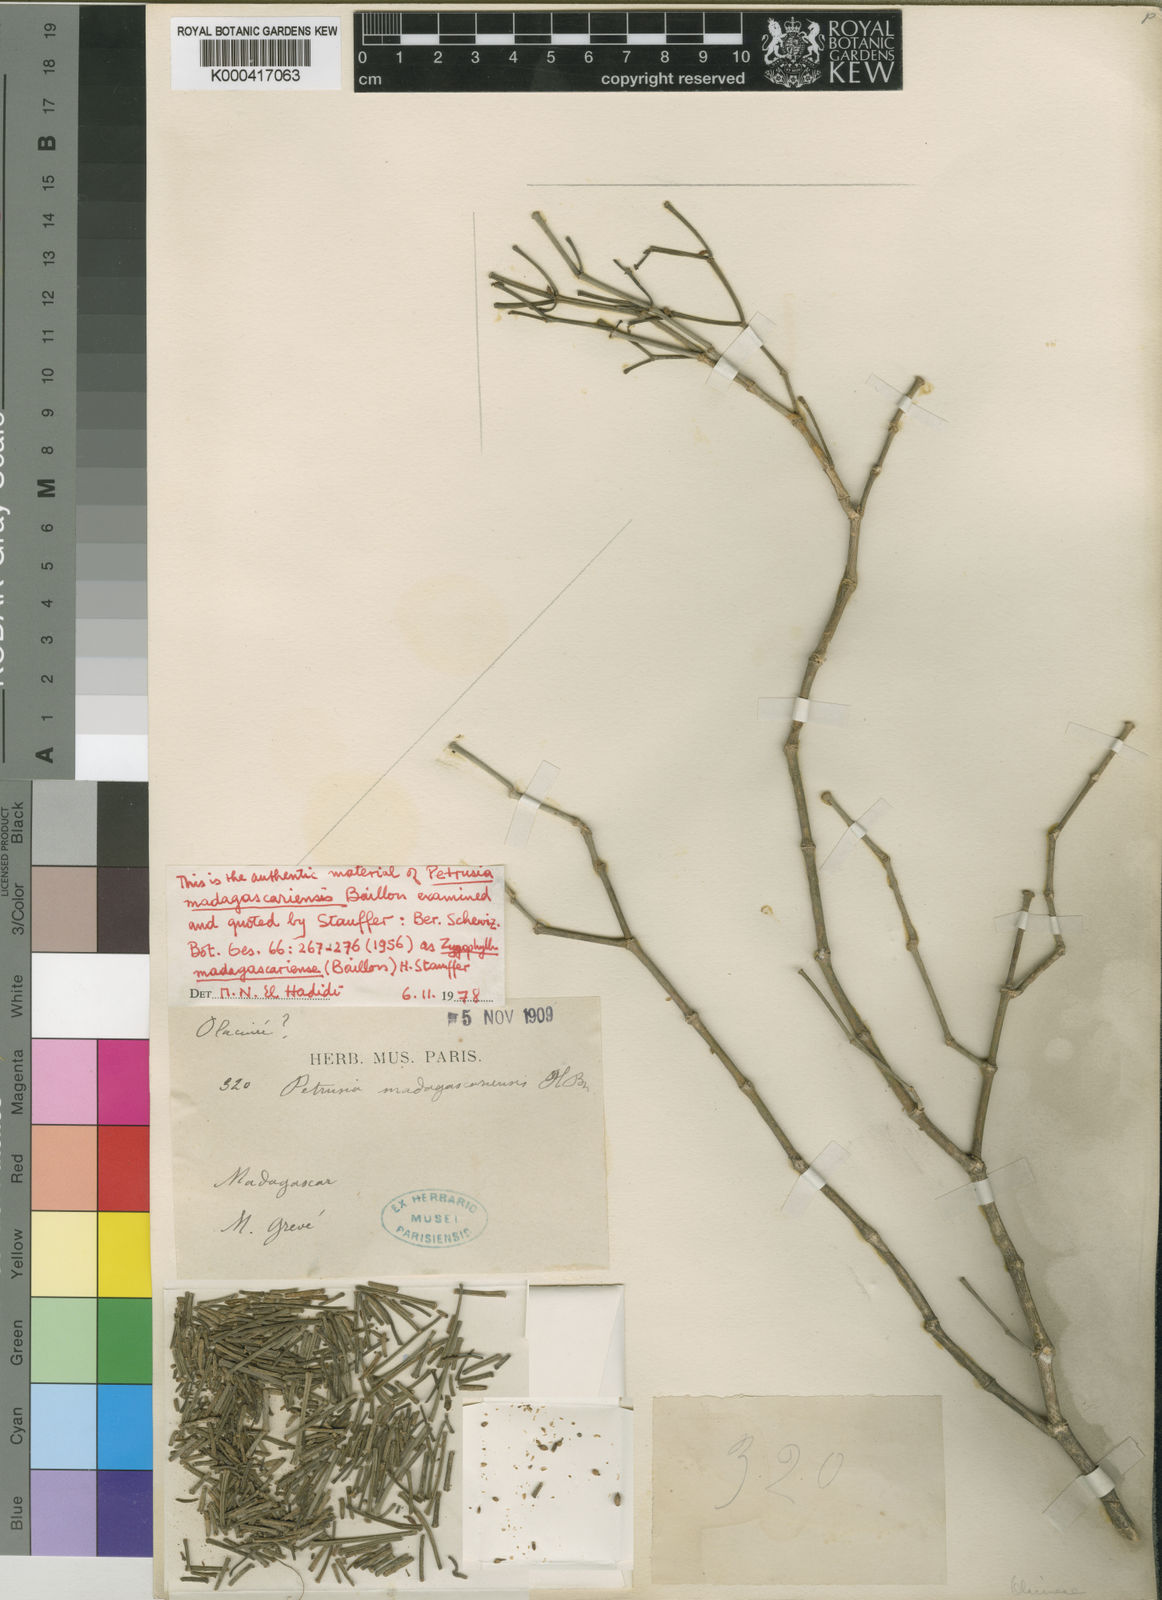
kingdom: Plantae
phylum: Tracheophyta
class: Magnoliopsida
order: Zygophyllales
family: Zygophyllaceae
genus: Tetraena
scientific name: Tetraena madagascariensis
